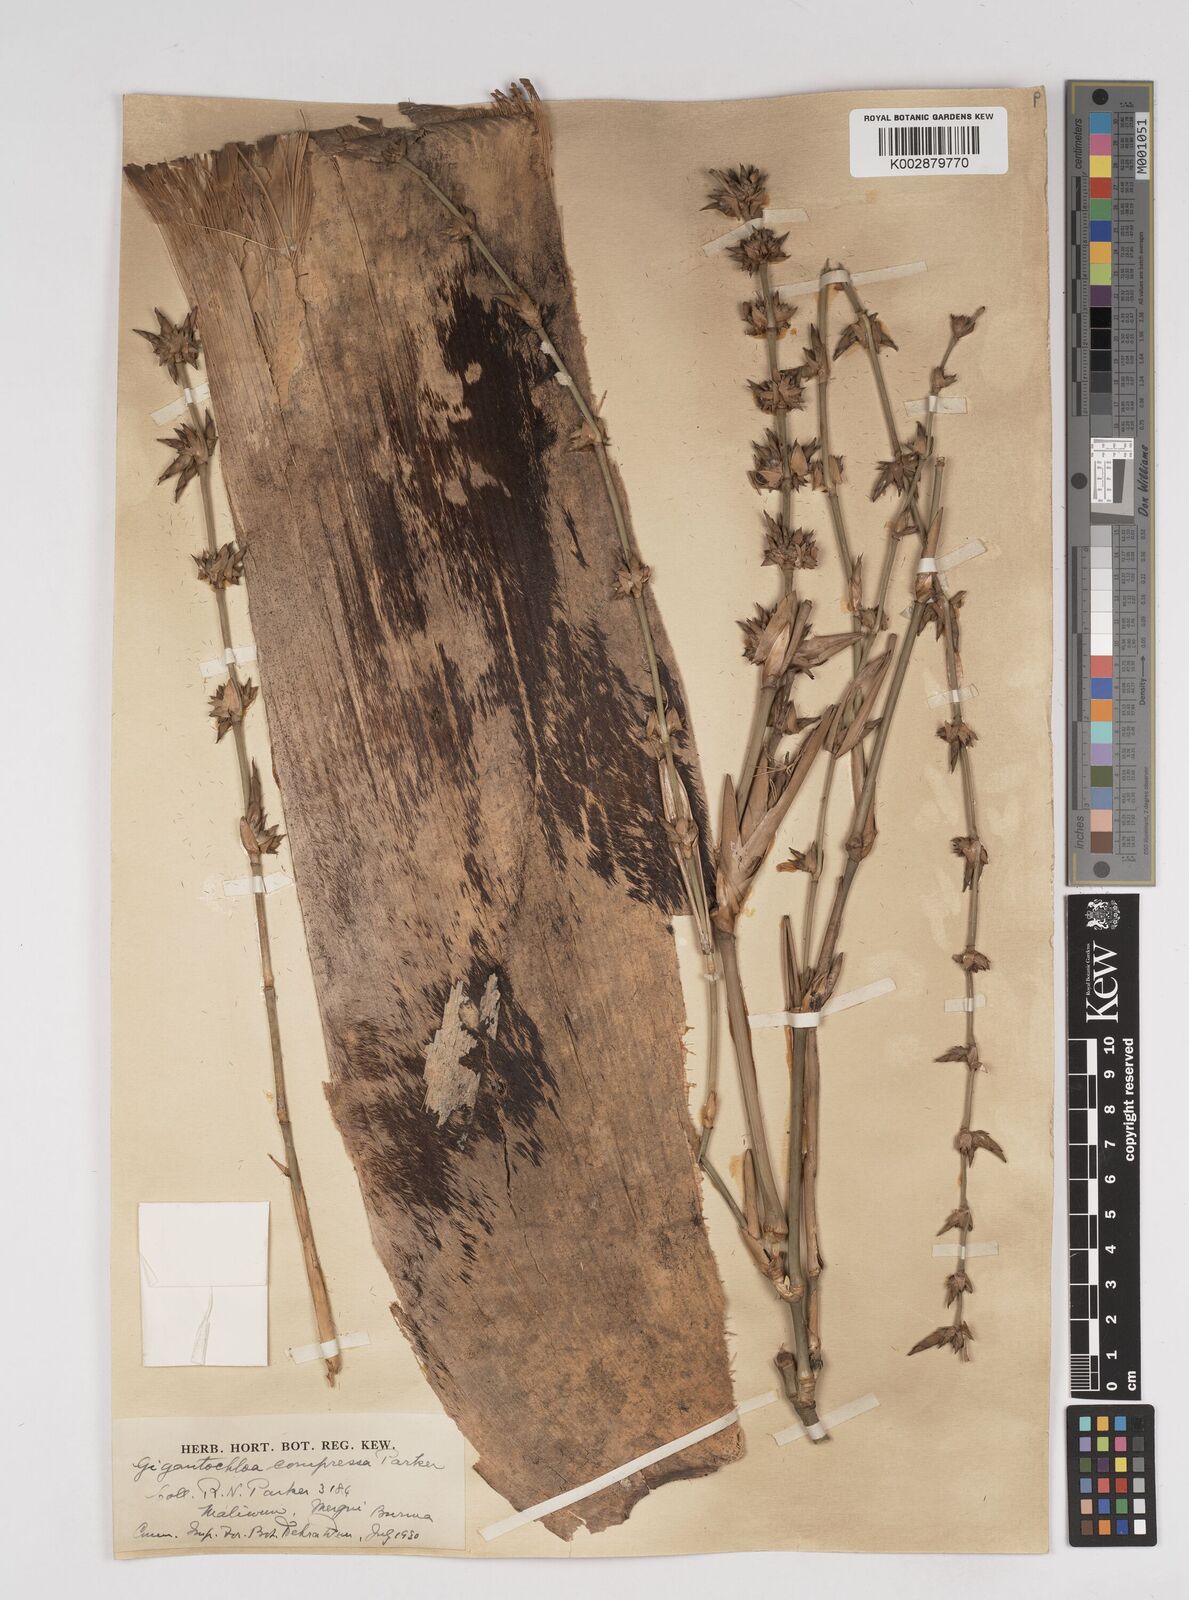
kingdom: Plantae
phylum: Tracheophyta
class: Liliopsida
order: Poales
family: Poaceae
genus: Gigantochloa
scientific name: Gigantochloa compressa
